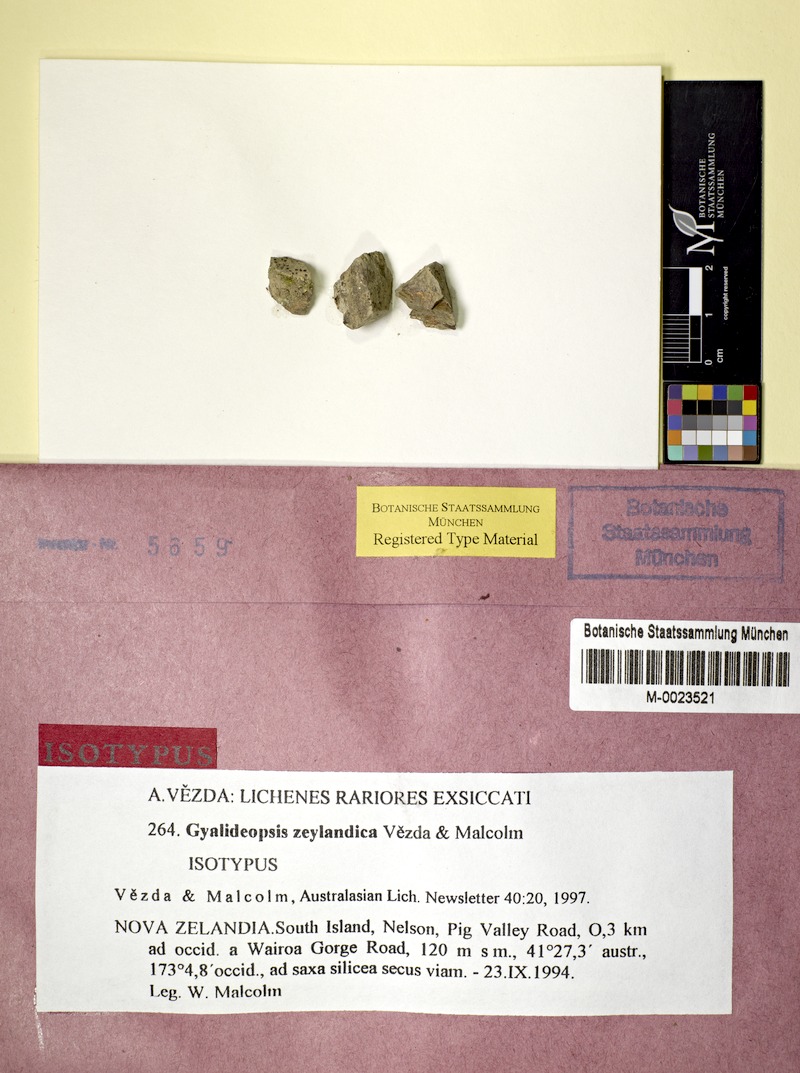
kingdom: Fungi
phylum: Ascomycota
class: Lecanoromycetes
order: Ostropales
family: Gomphillaceae
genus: Lithogyalideopsis
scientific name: Lithogyalideopsis zeylandica
